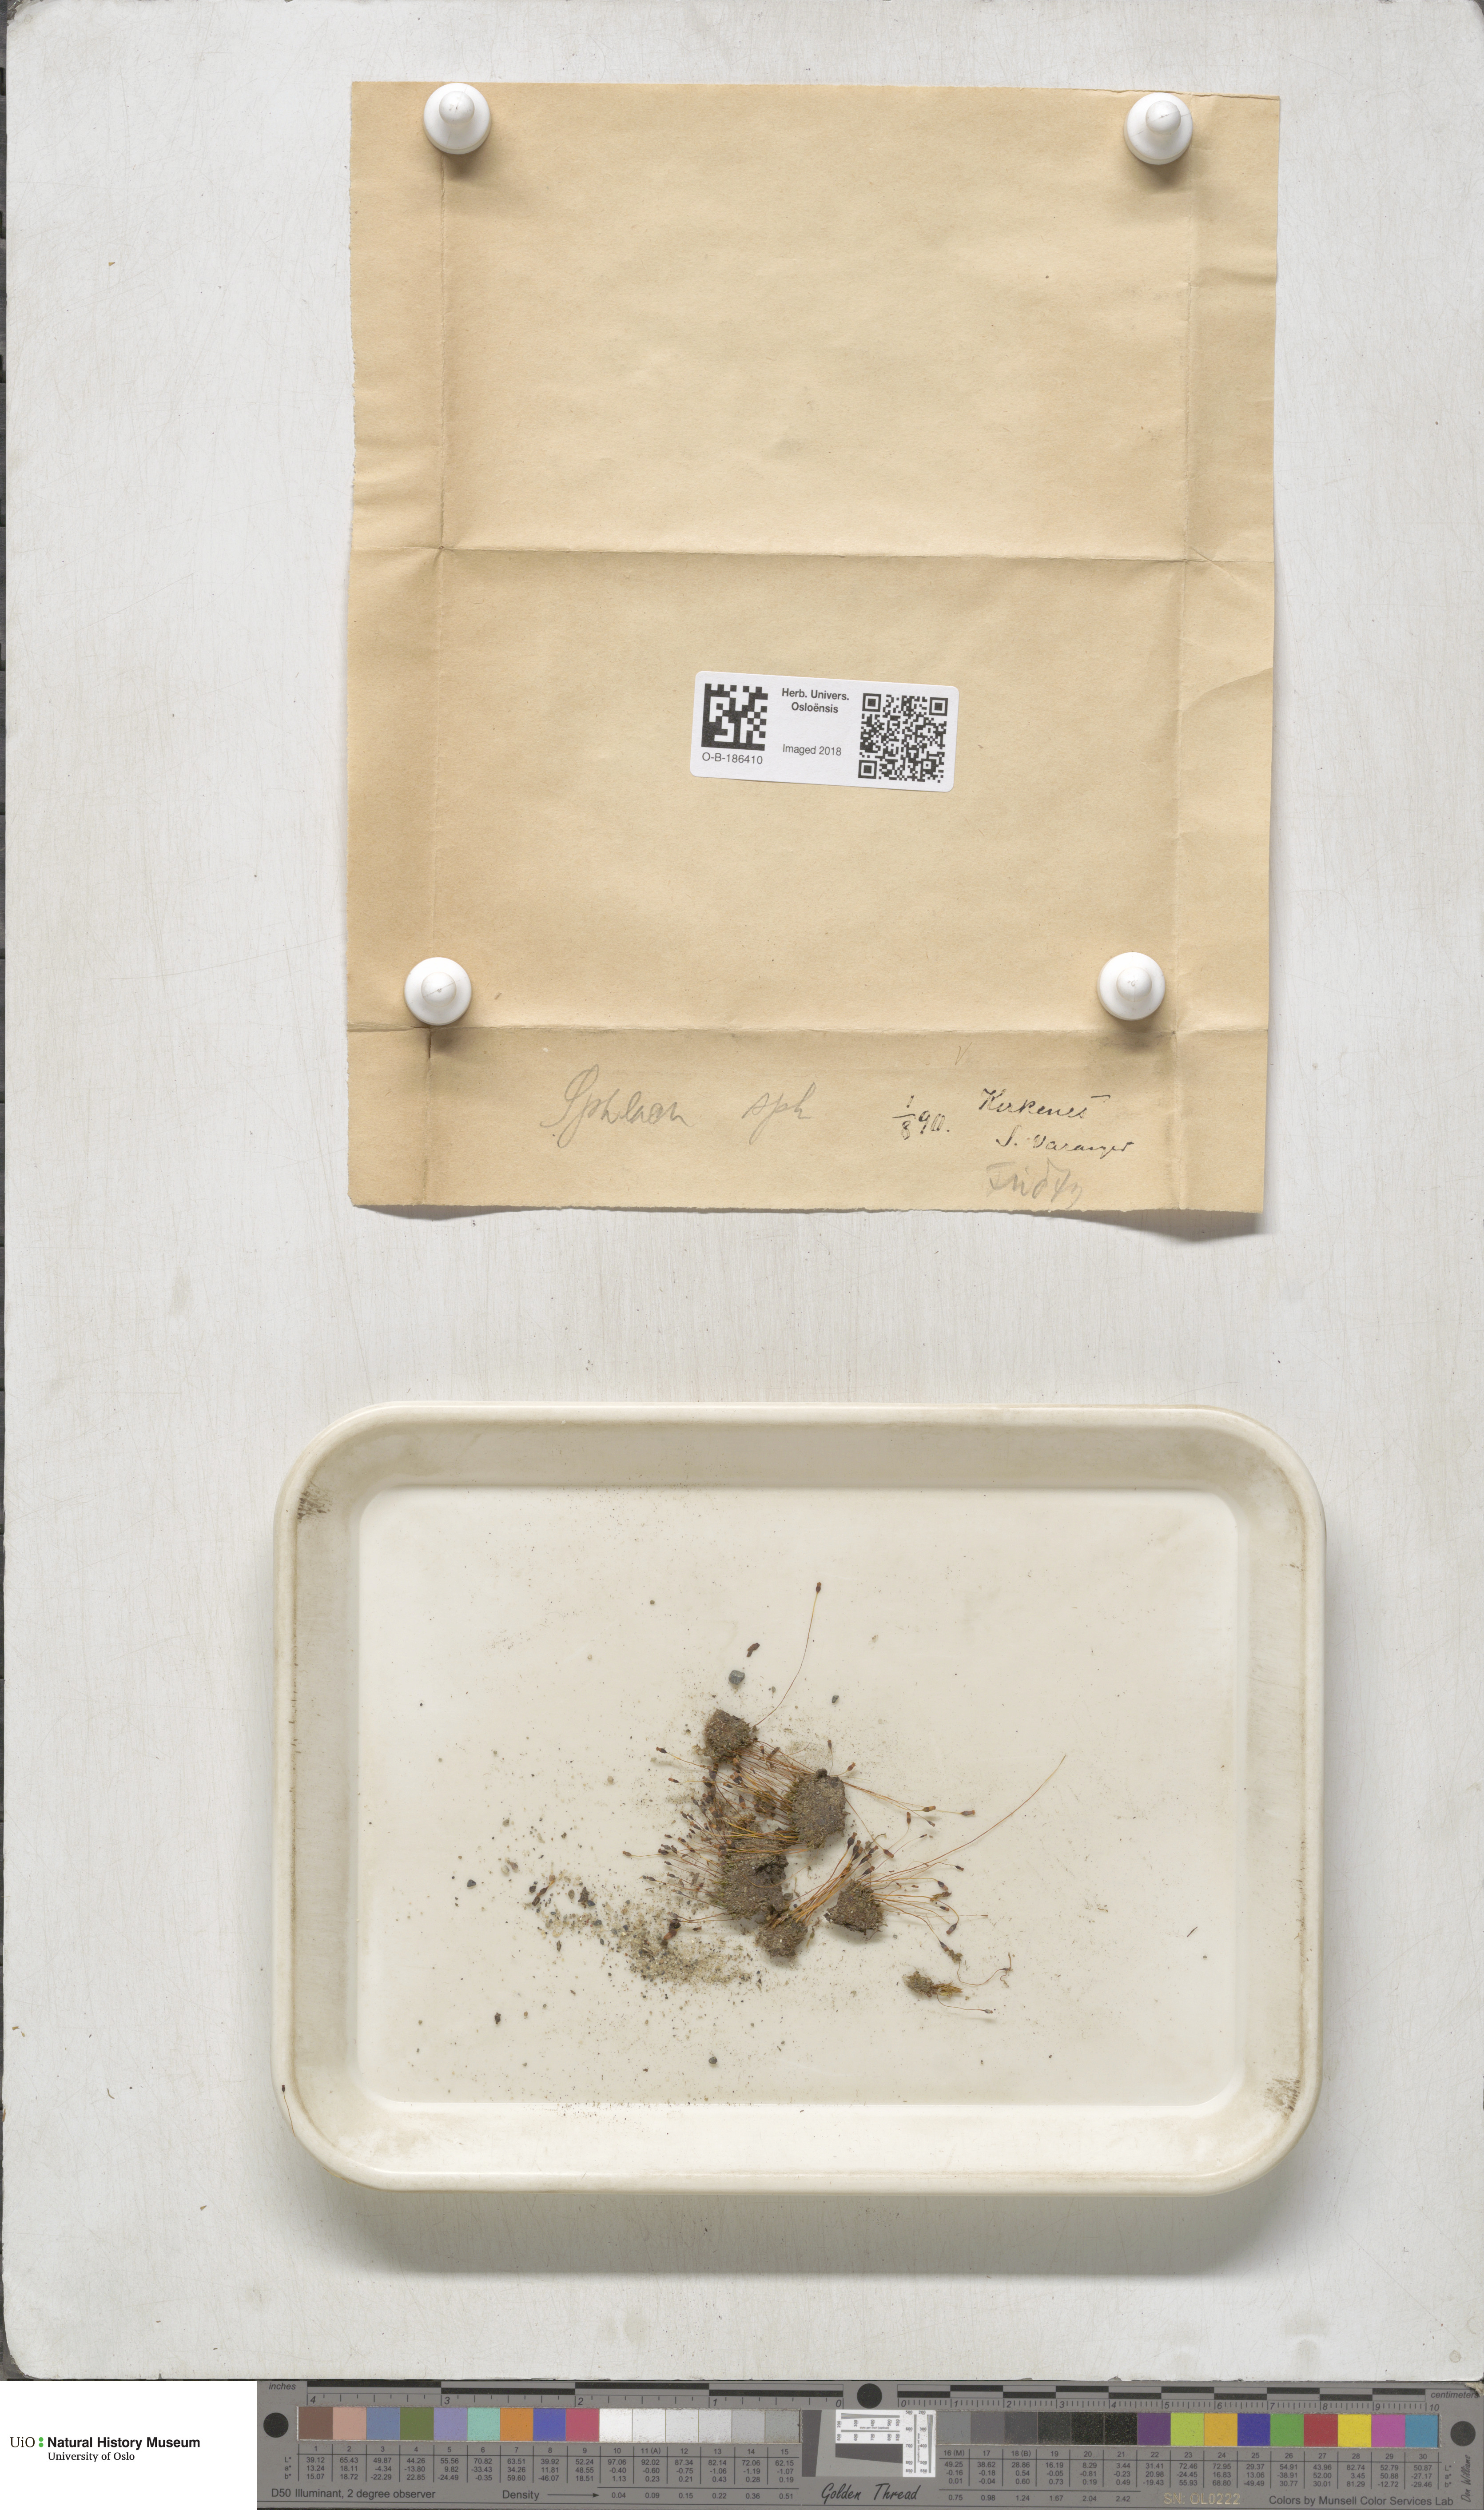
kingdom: Plantae
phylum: Bryophyta
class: Bryopsida
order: Splachnales
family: Splachnaceae
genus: Splachnum
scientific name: Splachnum sphaericum
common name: Round-fruited dung moss
